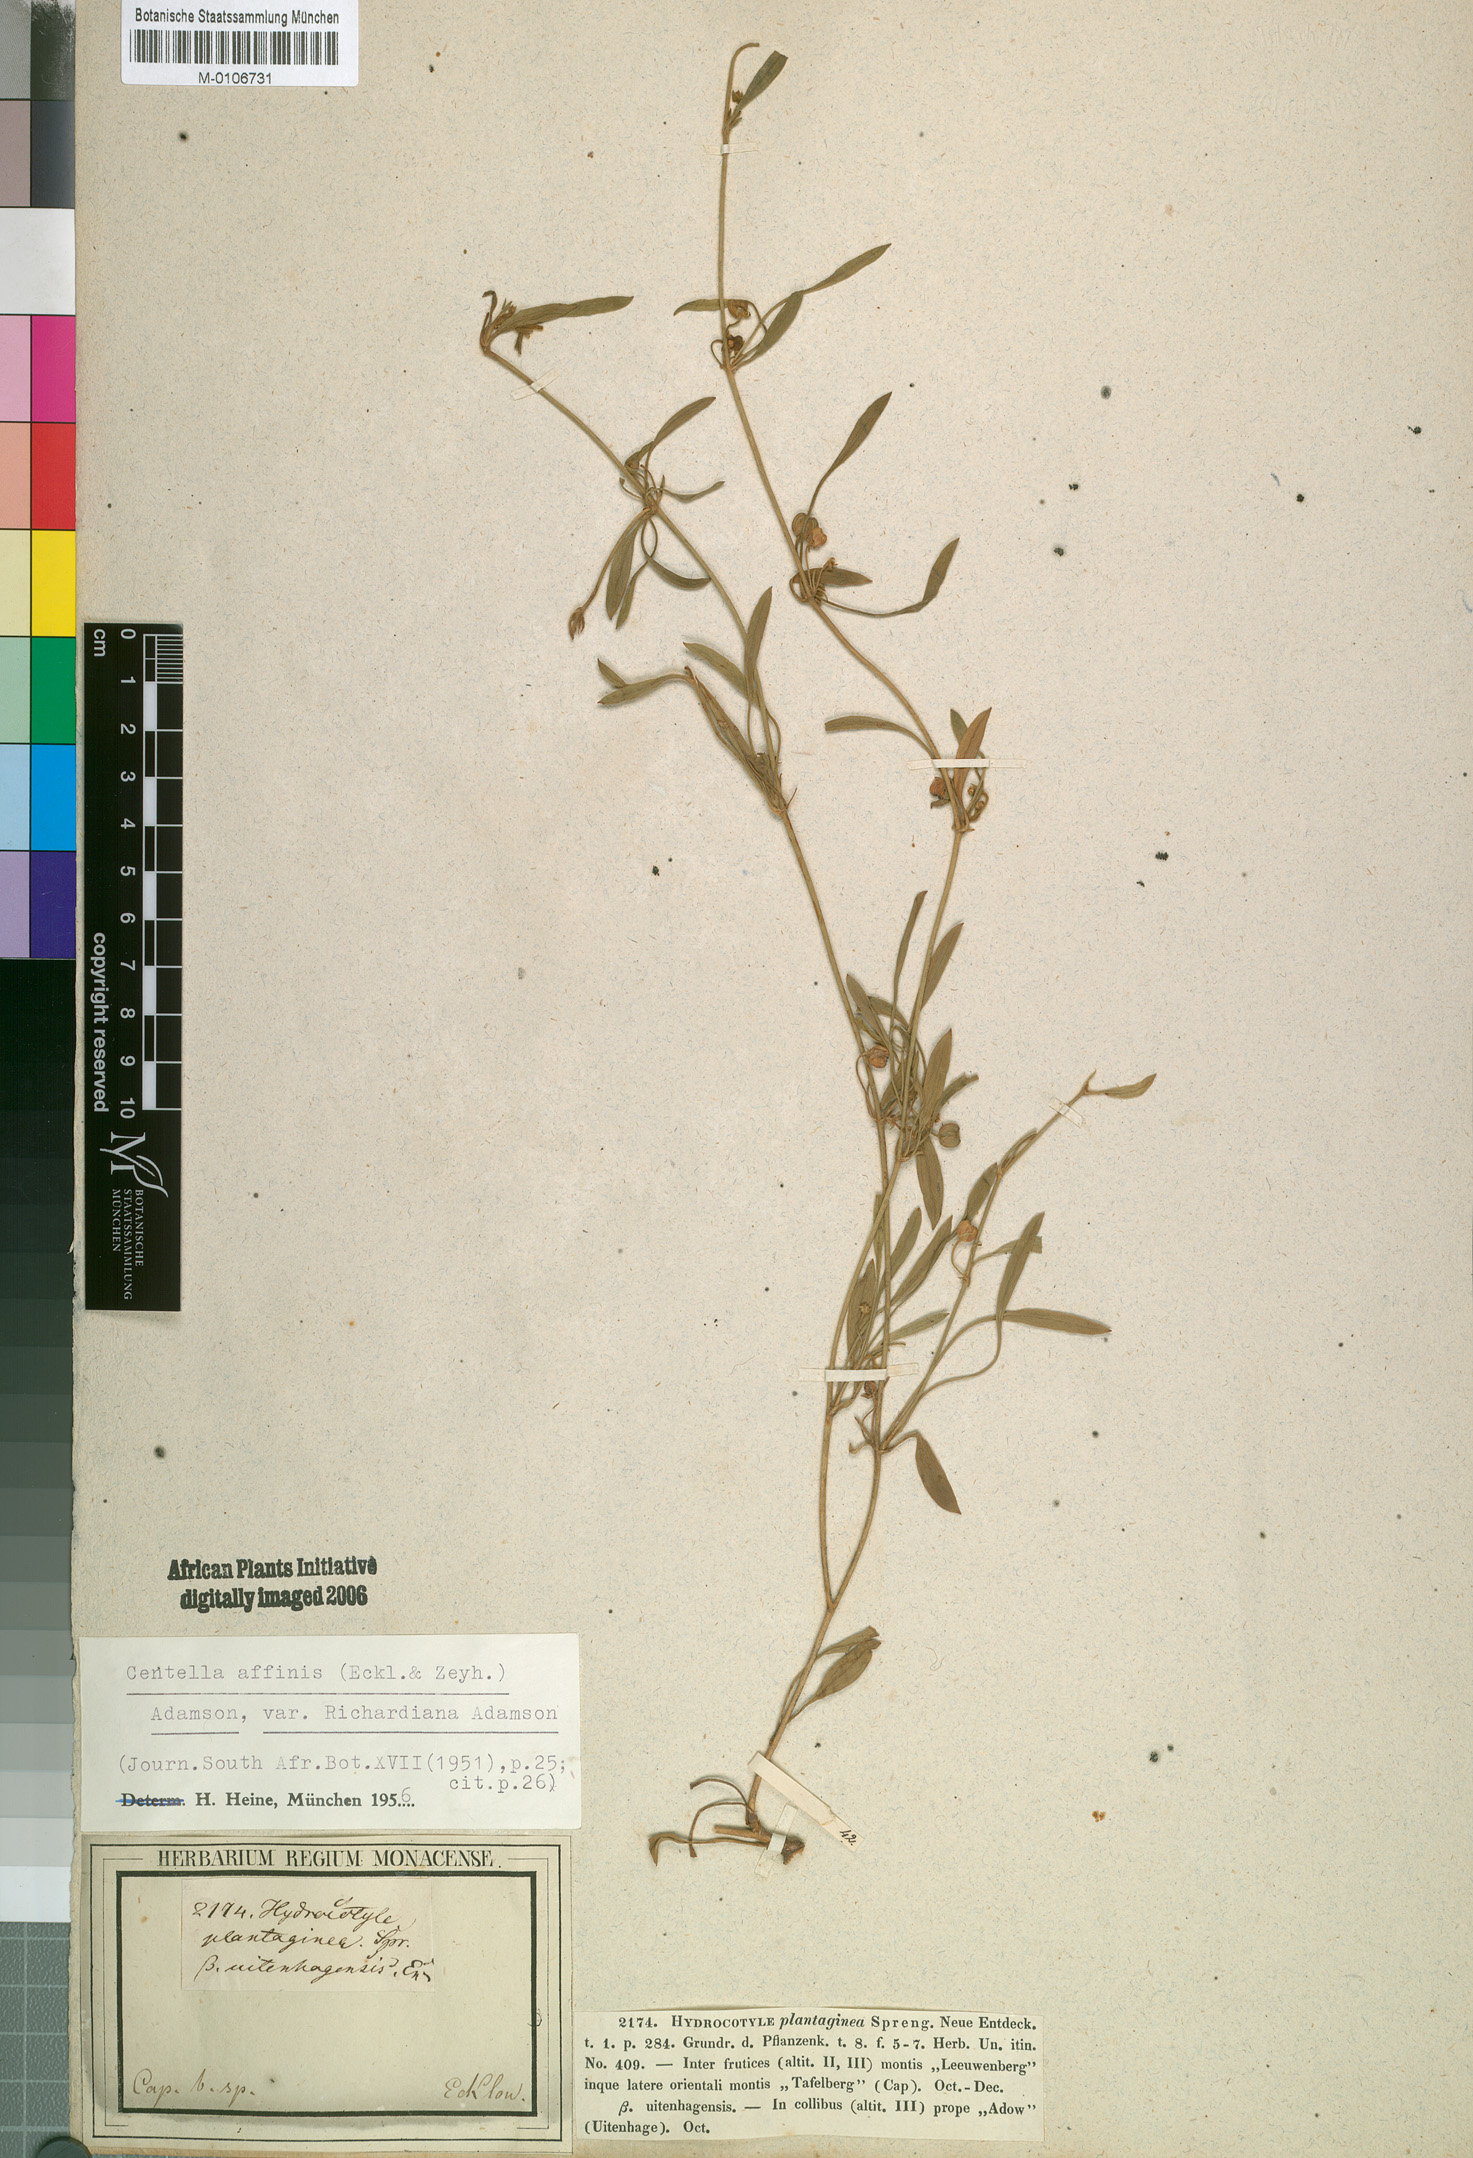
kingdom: Plantae
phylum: Tracheophyta
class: Magnoliopsida
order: Apiales
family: Apiaceae
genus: Centella
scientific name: Centella affinis
